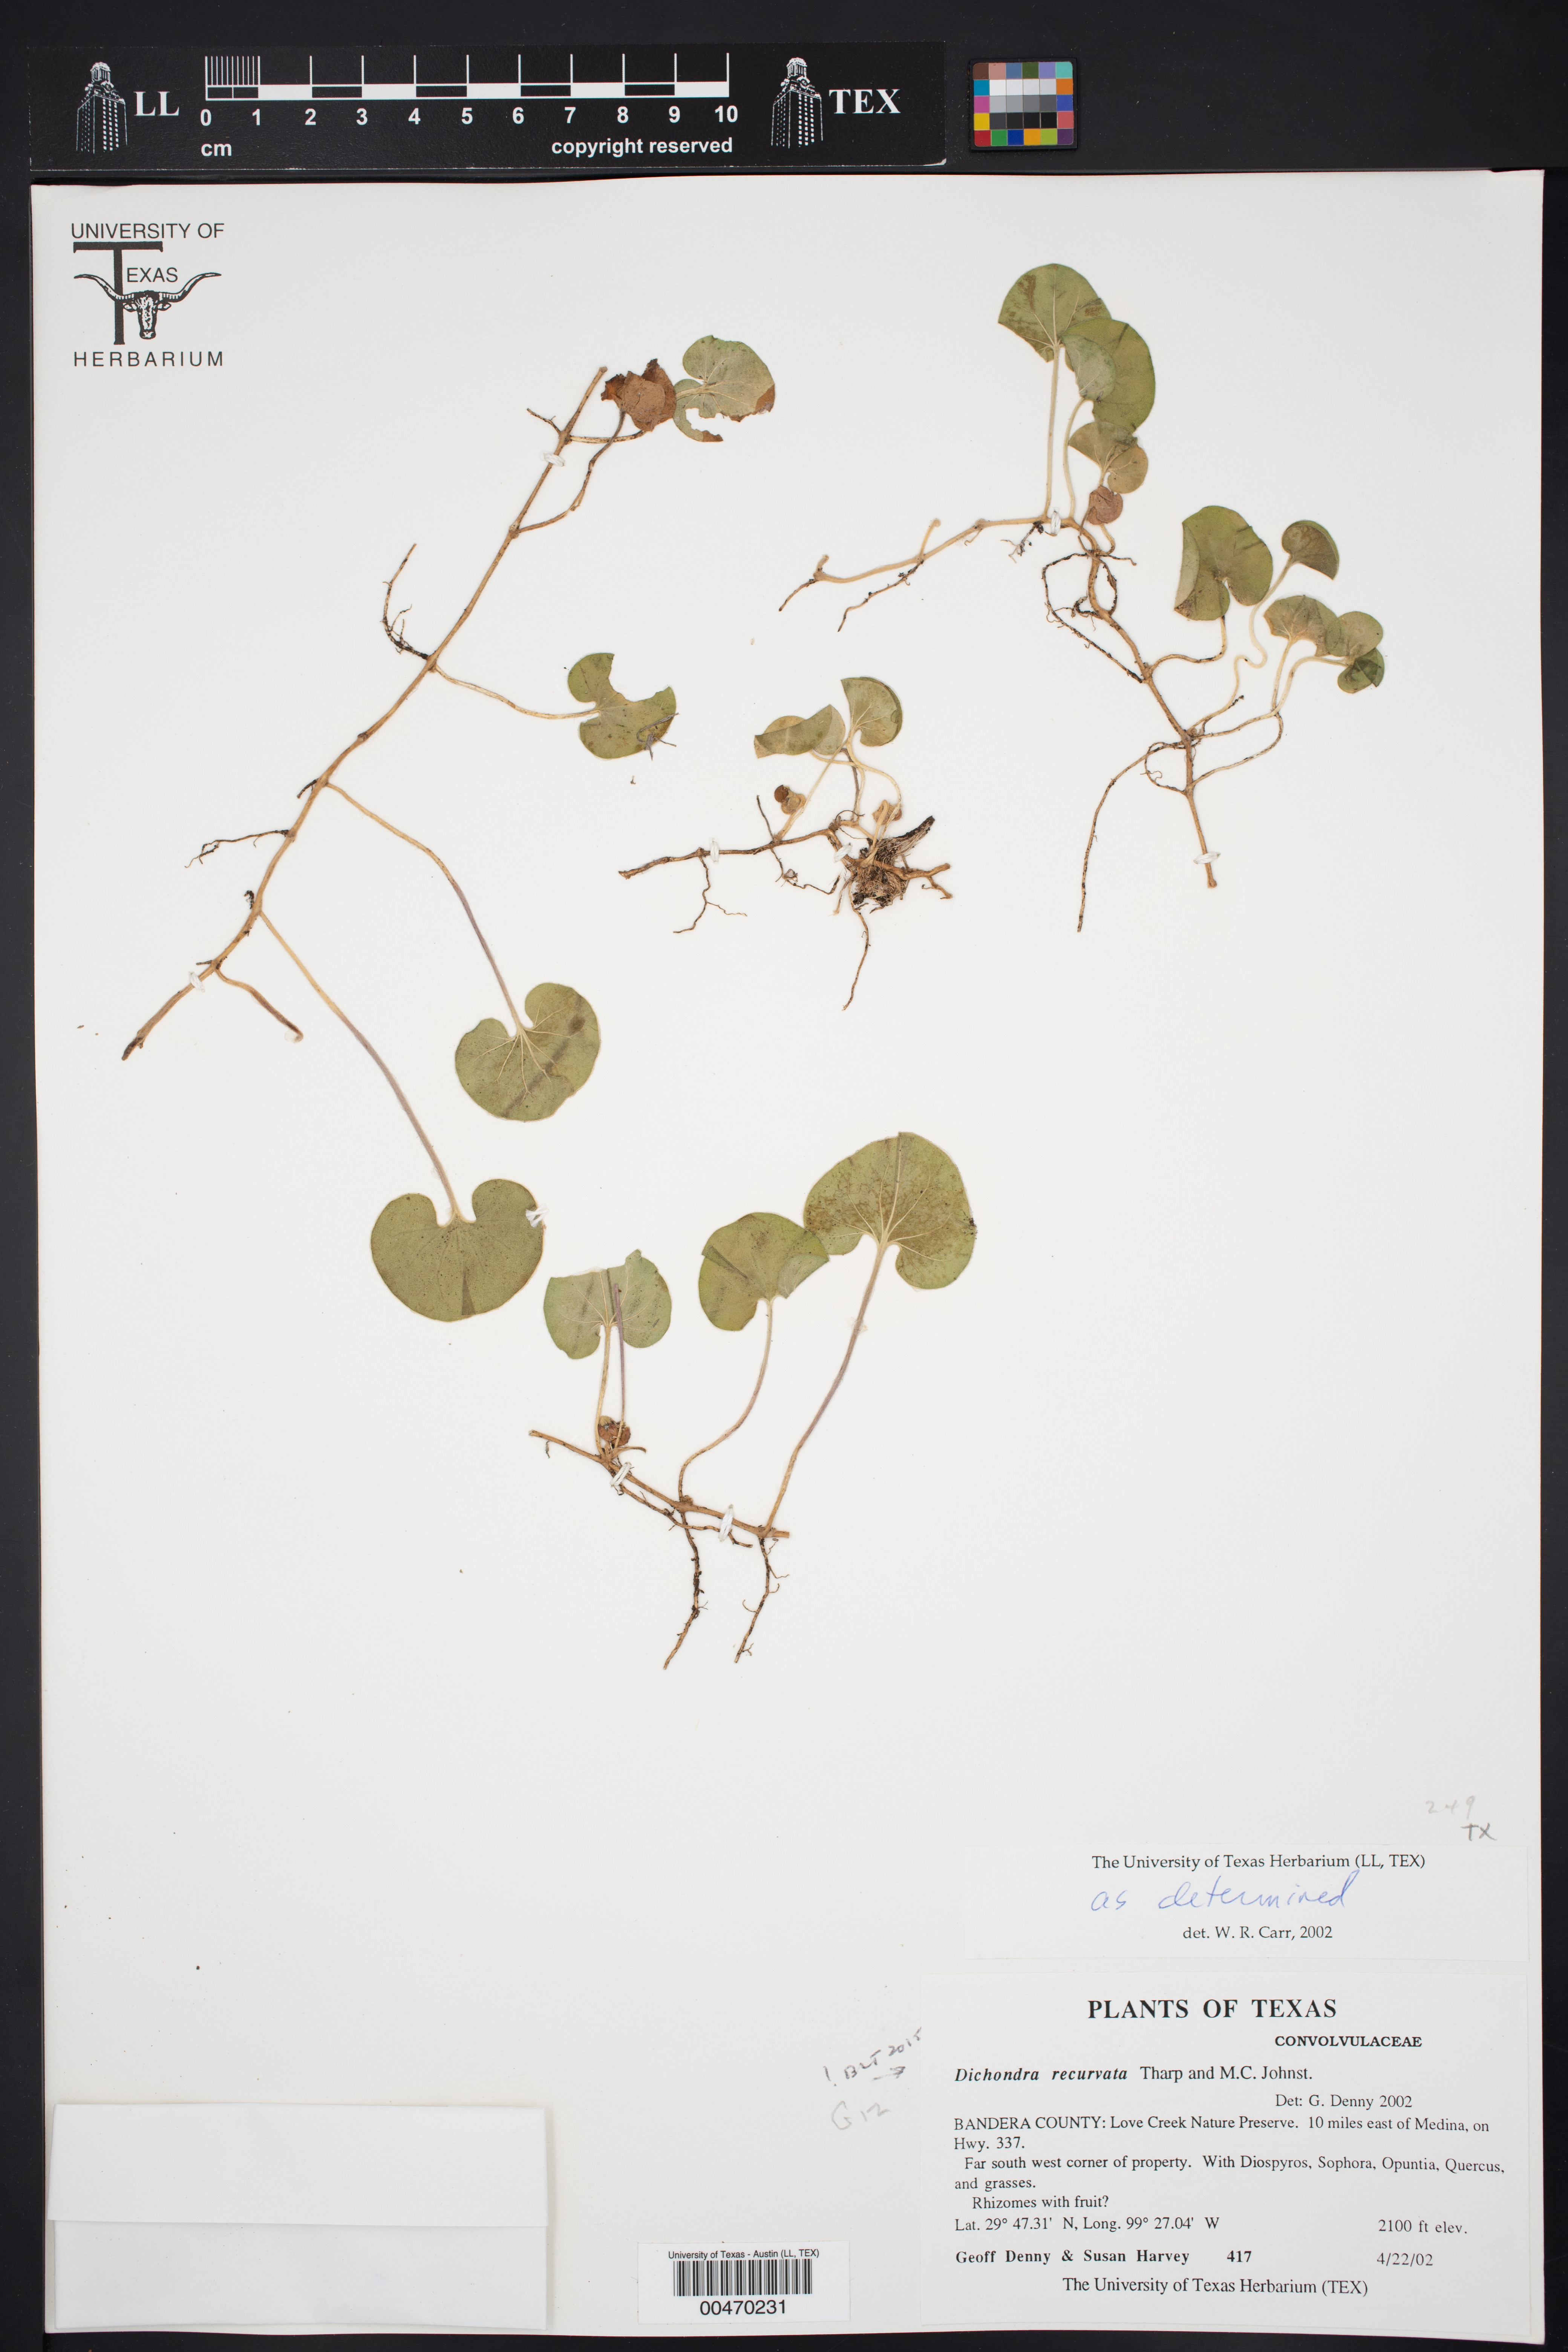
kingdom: Plantae
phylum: Tracheophyta
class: Magnoliopsida
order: Solanales
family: Convolvulaceae
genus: Dichondra
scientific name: Dichondra recurvata
